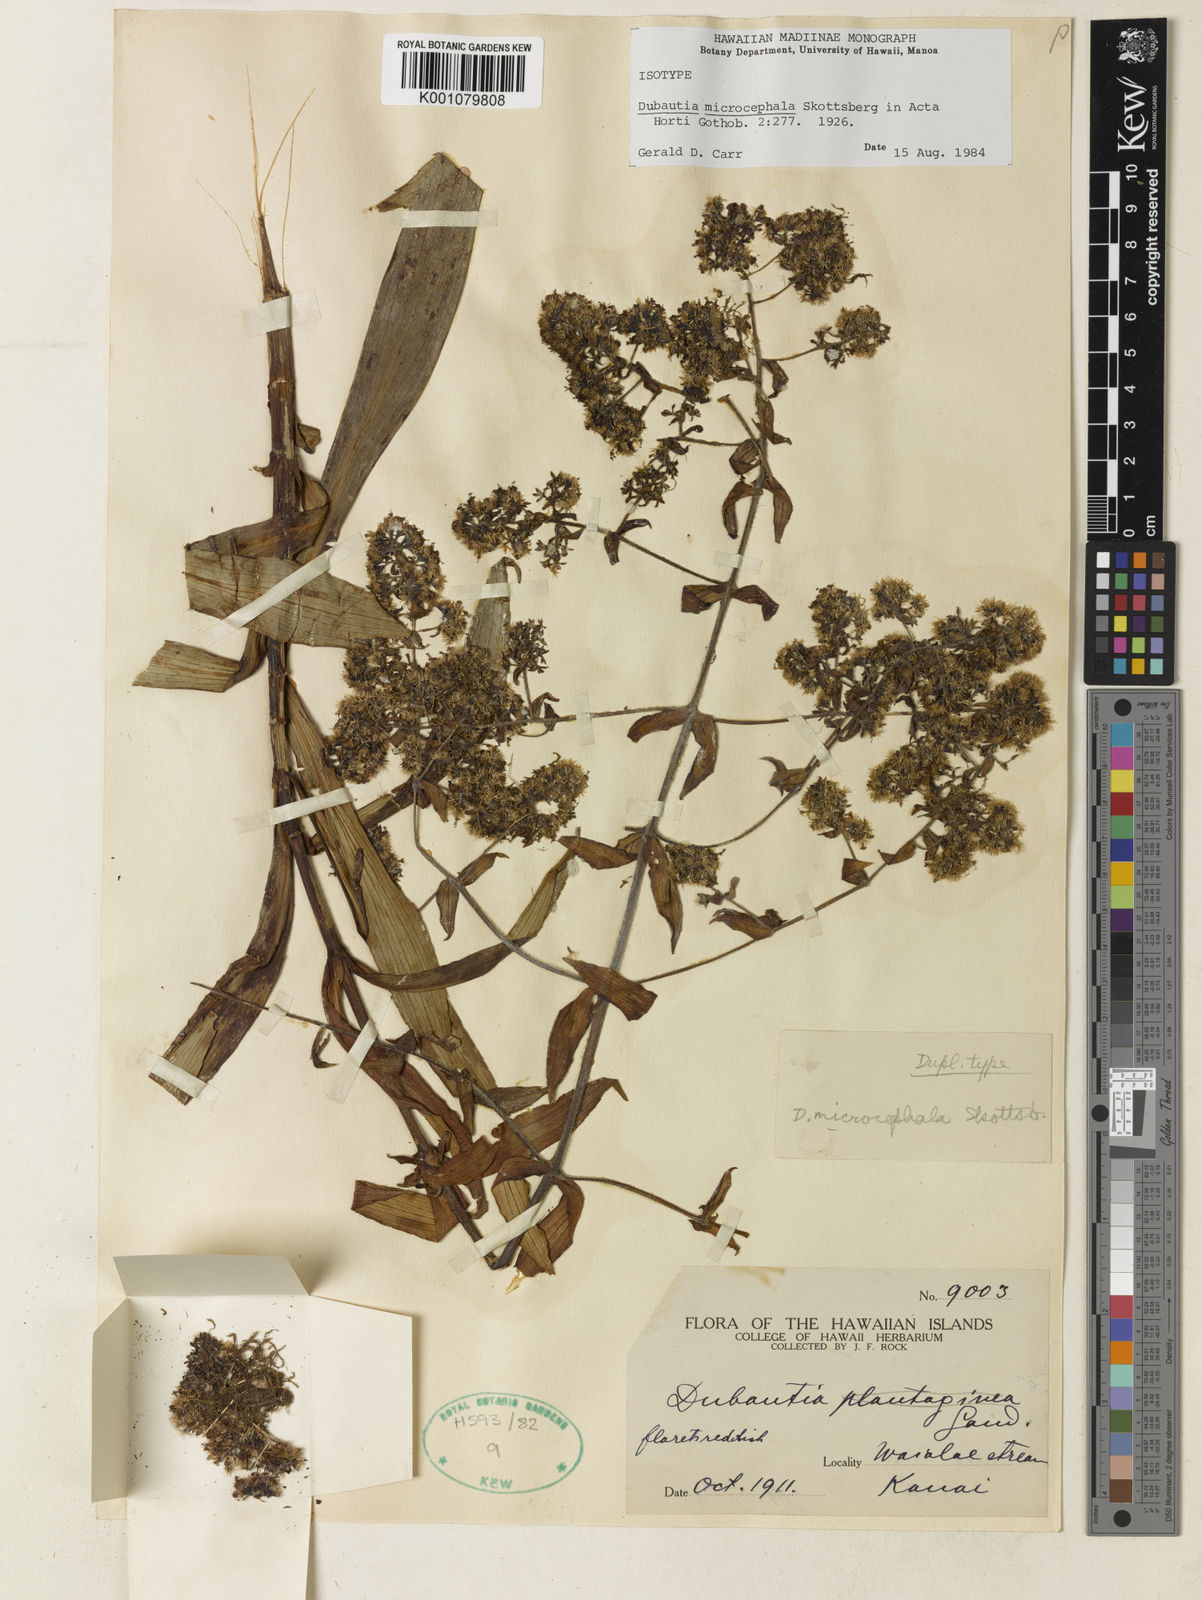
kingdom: Plantae
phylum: Tracheophyta
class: Magnoliopsida
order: Asterales
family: Asteraceae
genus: Dubautia
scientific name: Dubautia microcephala
